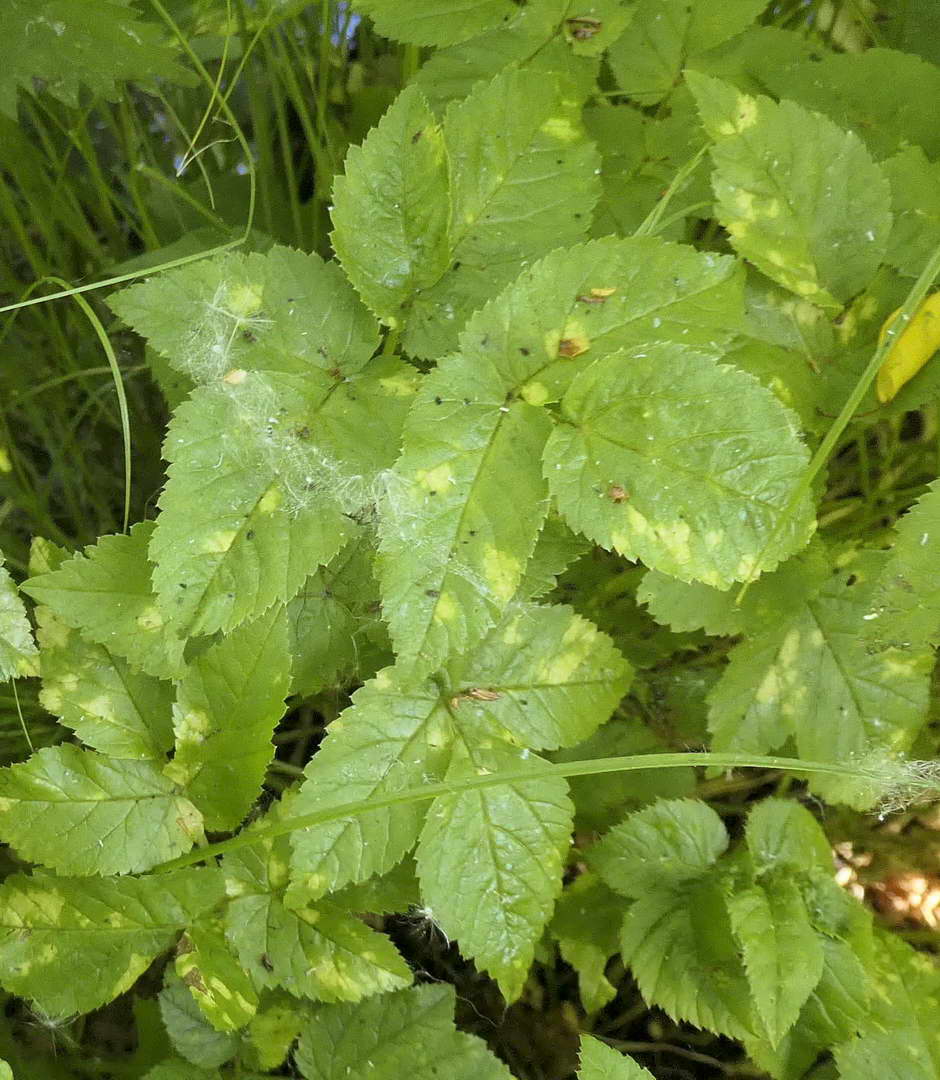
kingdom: Chromista
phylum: Oomycota
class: Peronosporea
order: Peronosporales
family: Peronosporaceae
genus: Peronospora
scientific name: Peronospora crustosa
